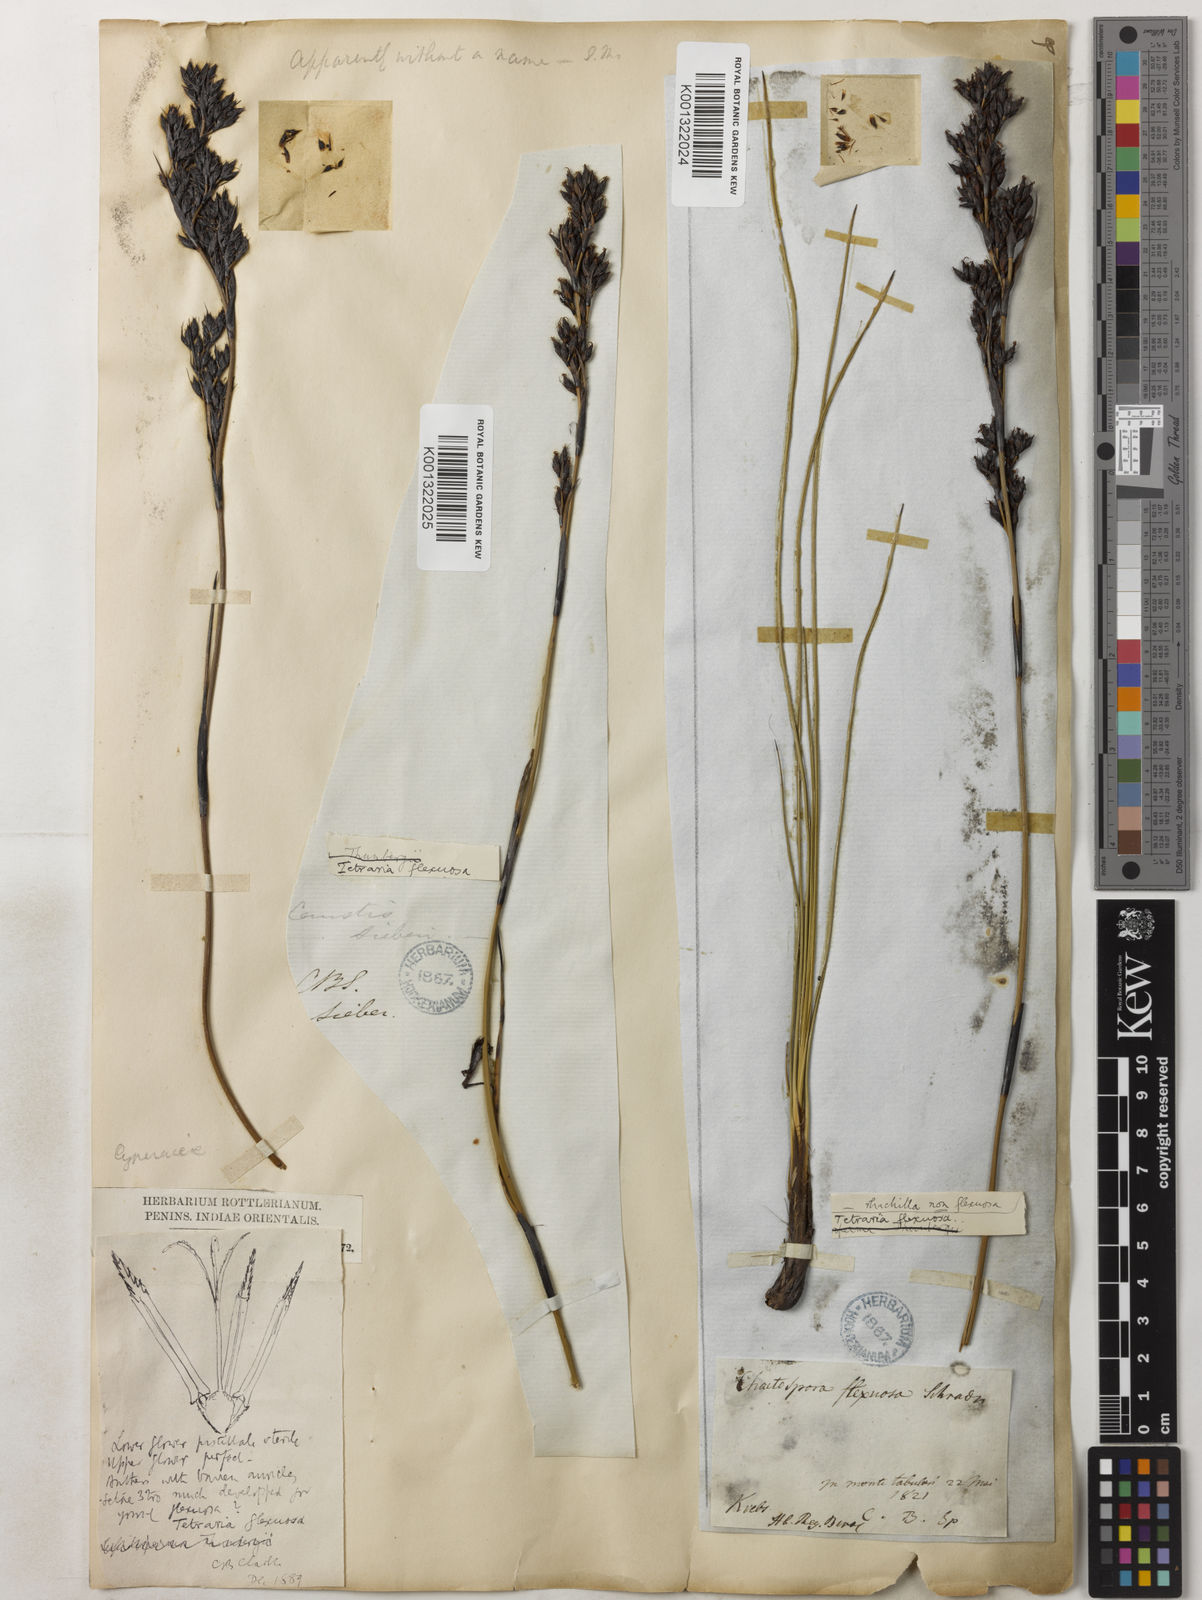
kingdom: Plantae
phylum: Tracheophyta
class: Liliopsida
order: Poales
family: Cyperaceae
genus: Tetraria
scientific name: Tetraria flexuosa
